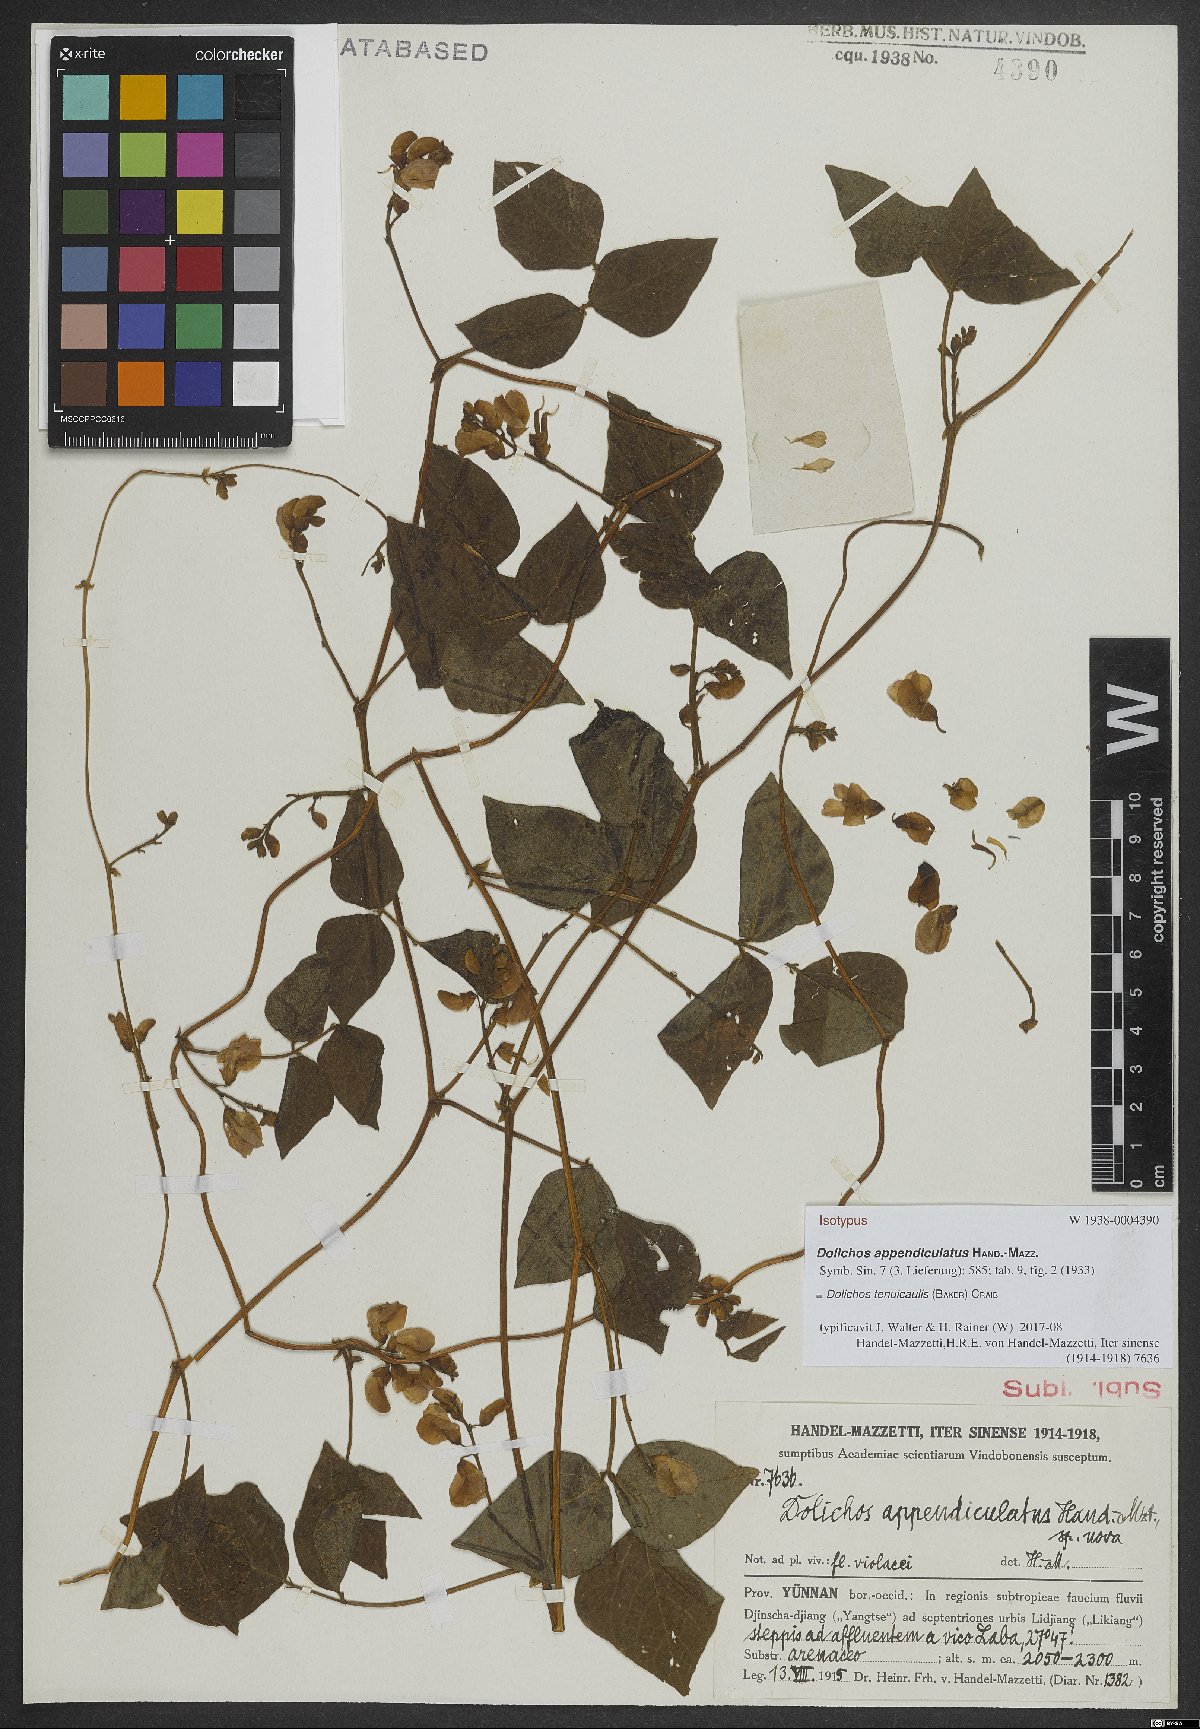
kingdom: Plantae
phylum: Tracheophyta
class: Magnoliopsida
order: Fabales
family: Fabaceae
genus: Dolichos
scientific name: Dolichos tenuicaulis
